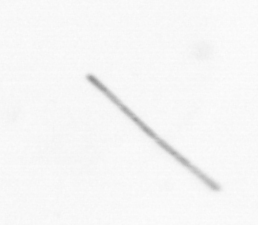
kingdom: Chromista
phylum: Ochrophyta
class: Bacillariophyceae
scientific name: Bacillariophyceae
